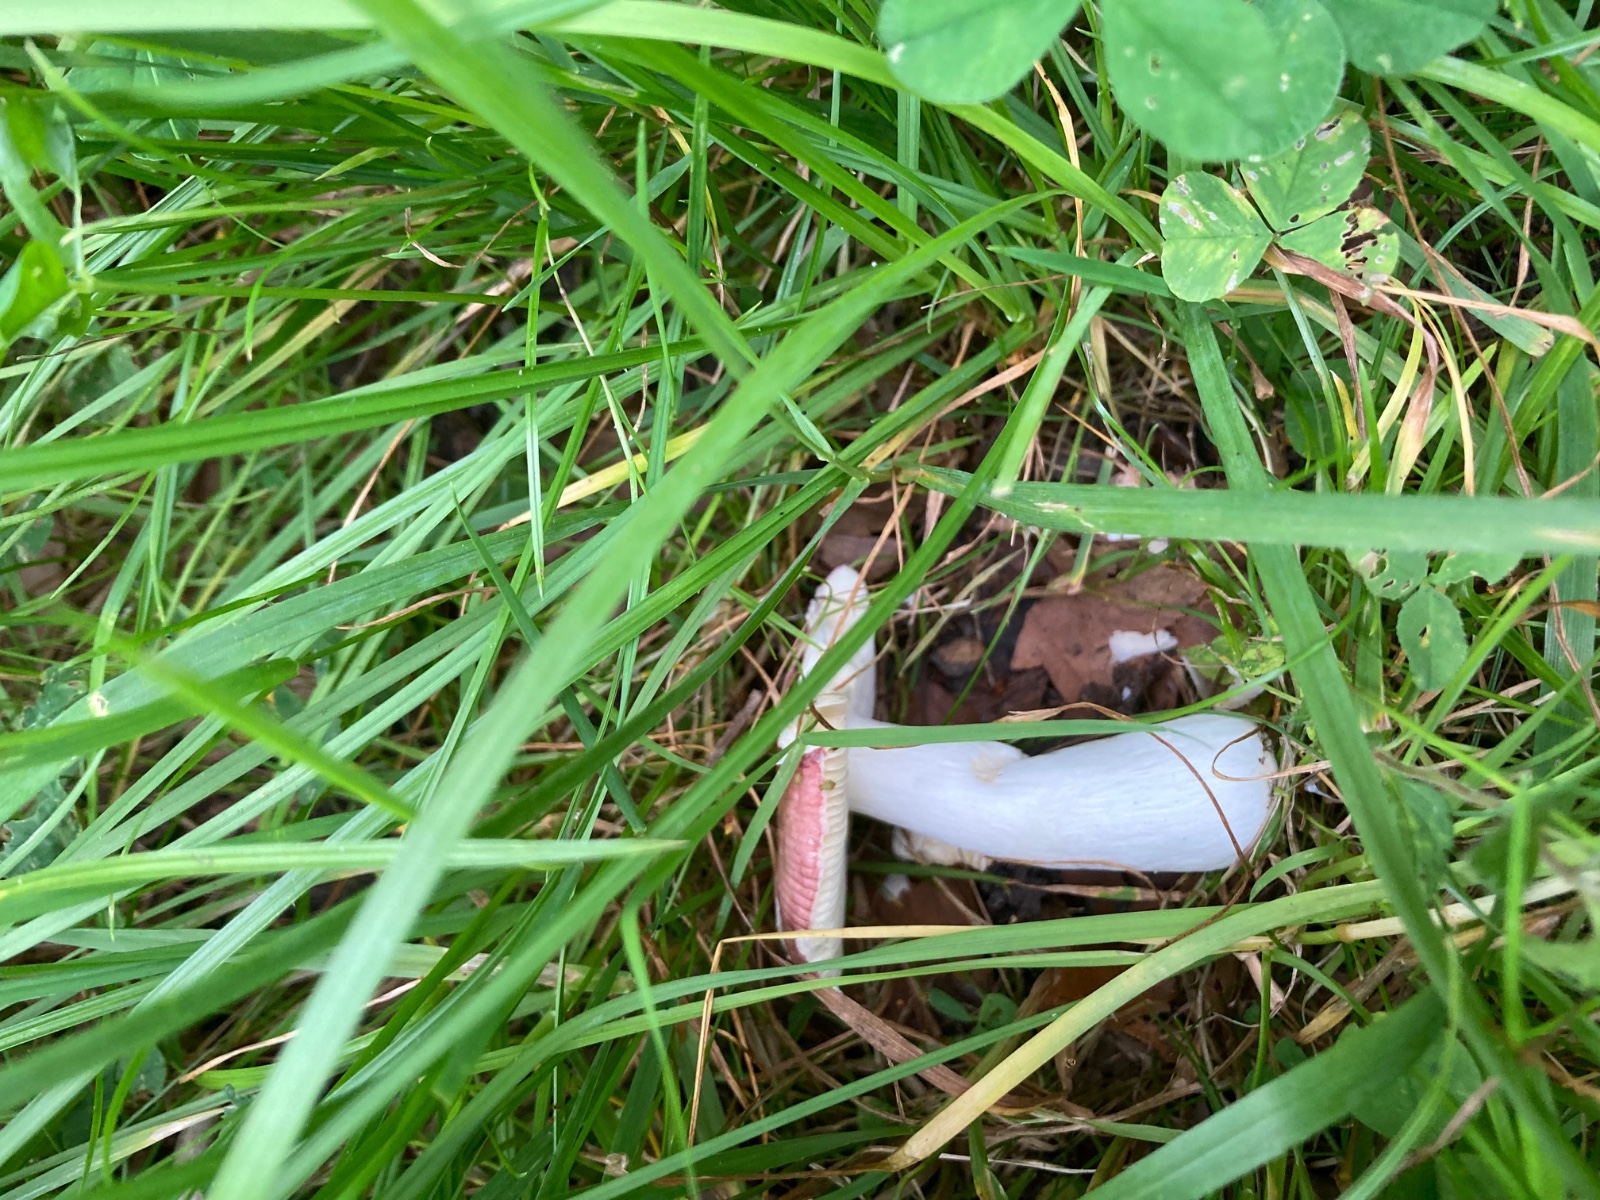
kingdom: Fungi
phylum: Basidiomycota
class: Agaricomycetes
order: Russulales
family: Russulaceae
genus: Russula
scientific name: Russula carpini
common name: avnbøg-skørhat
